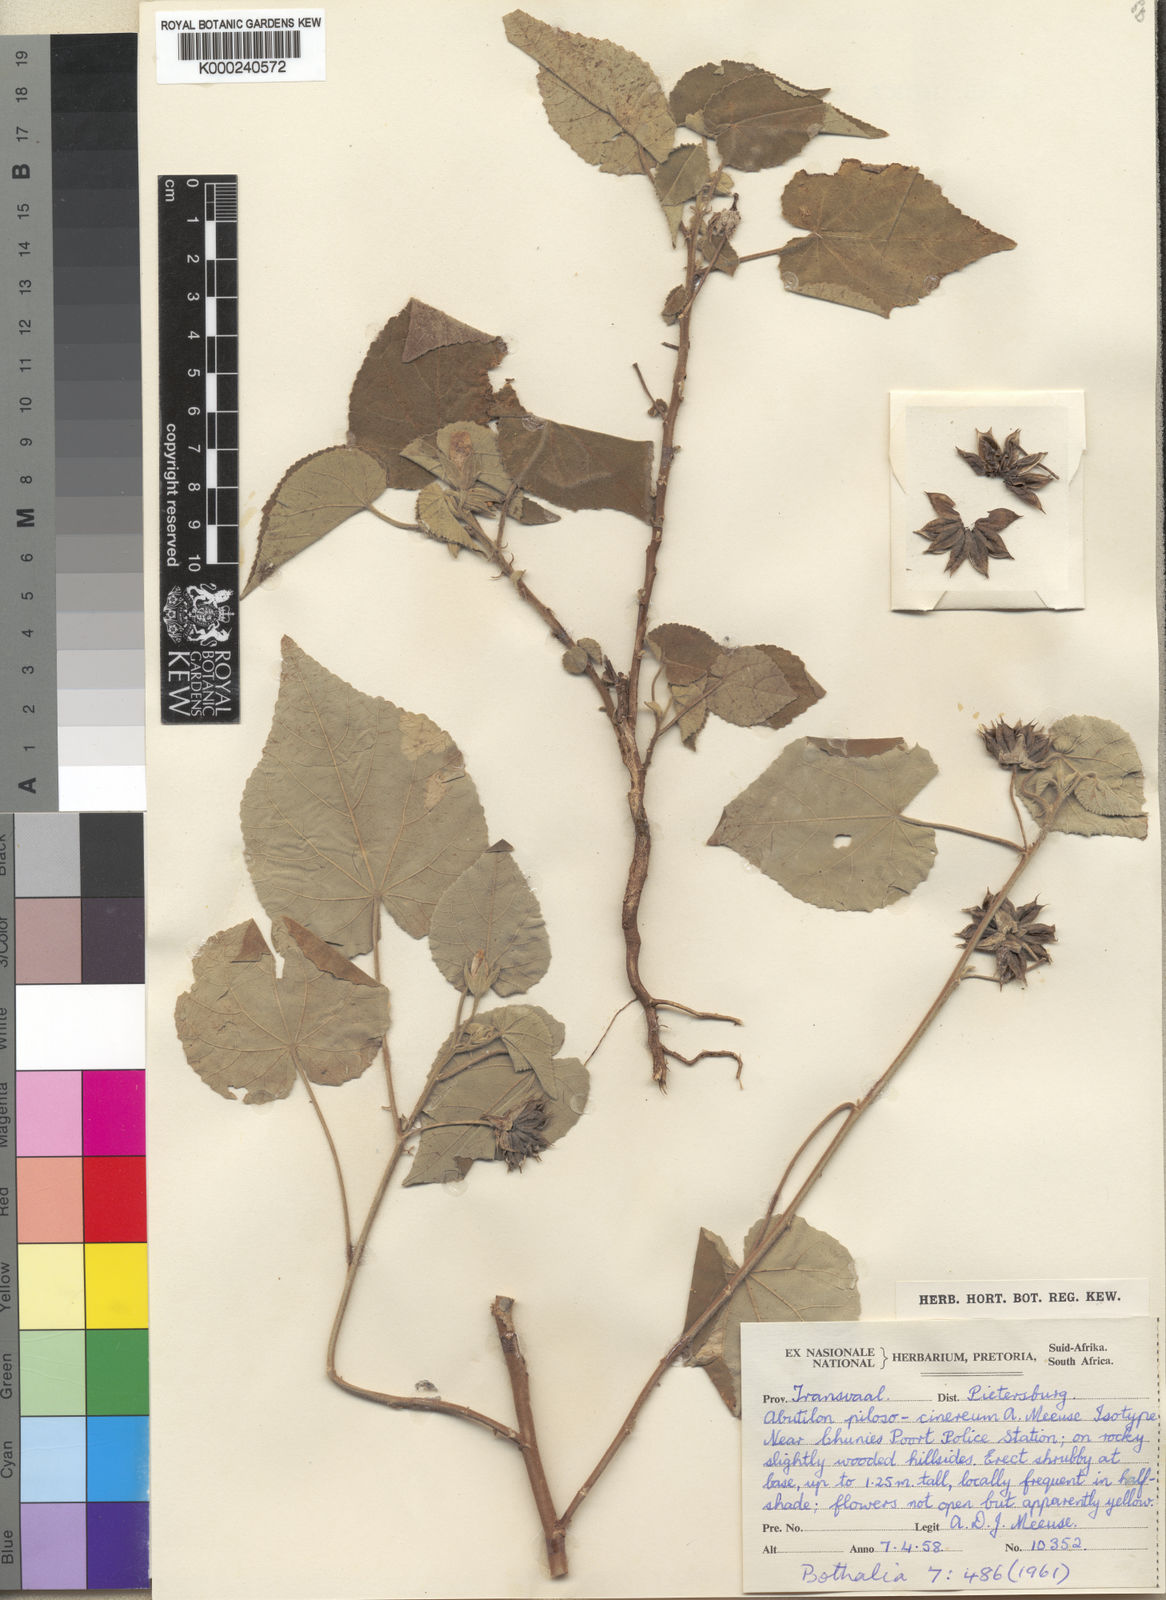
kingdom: Plantae
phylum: Tracheophyta
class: Magnoliopsida
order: Malvales
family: Malvaceae
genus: Abutilon
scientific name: Abutilon pycnodon
